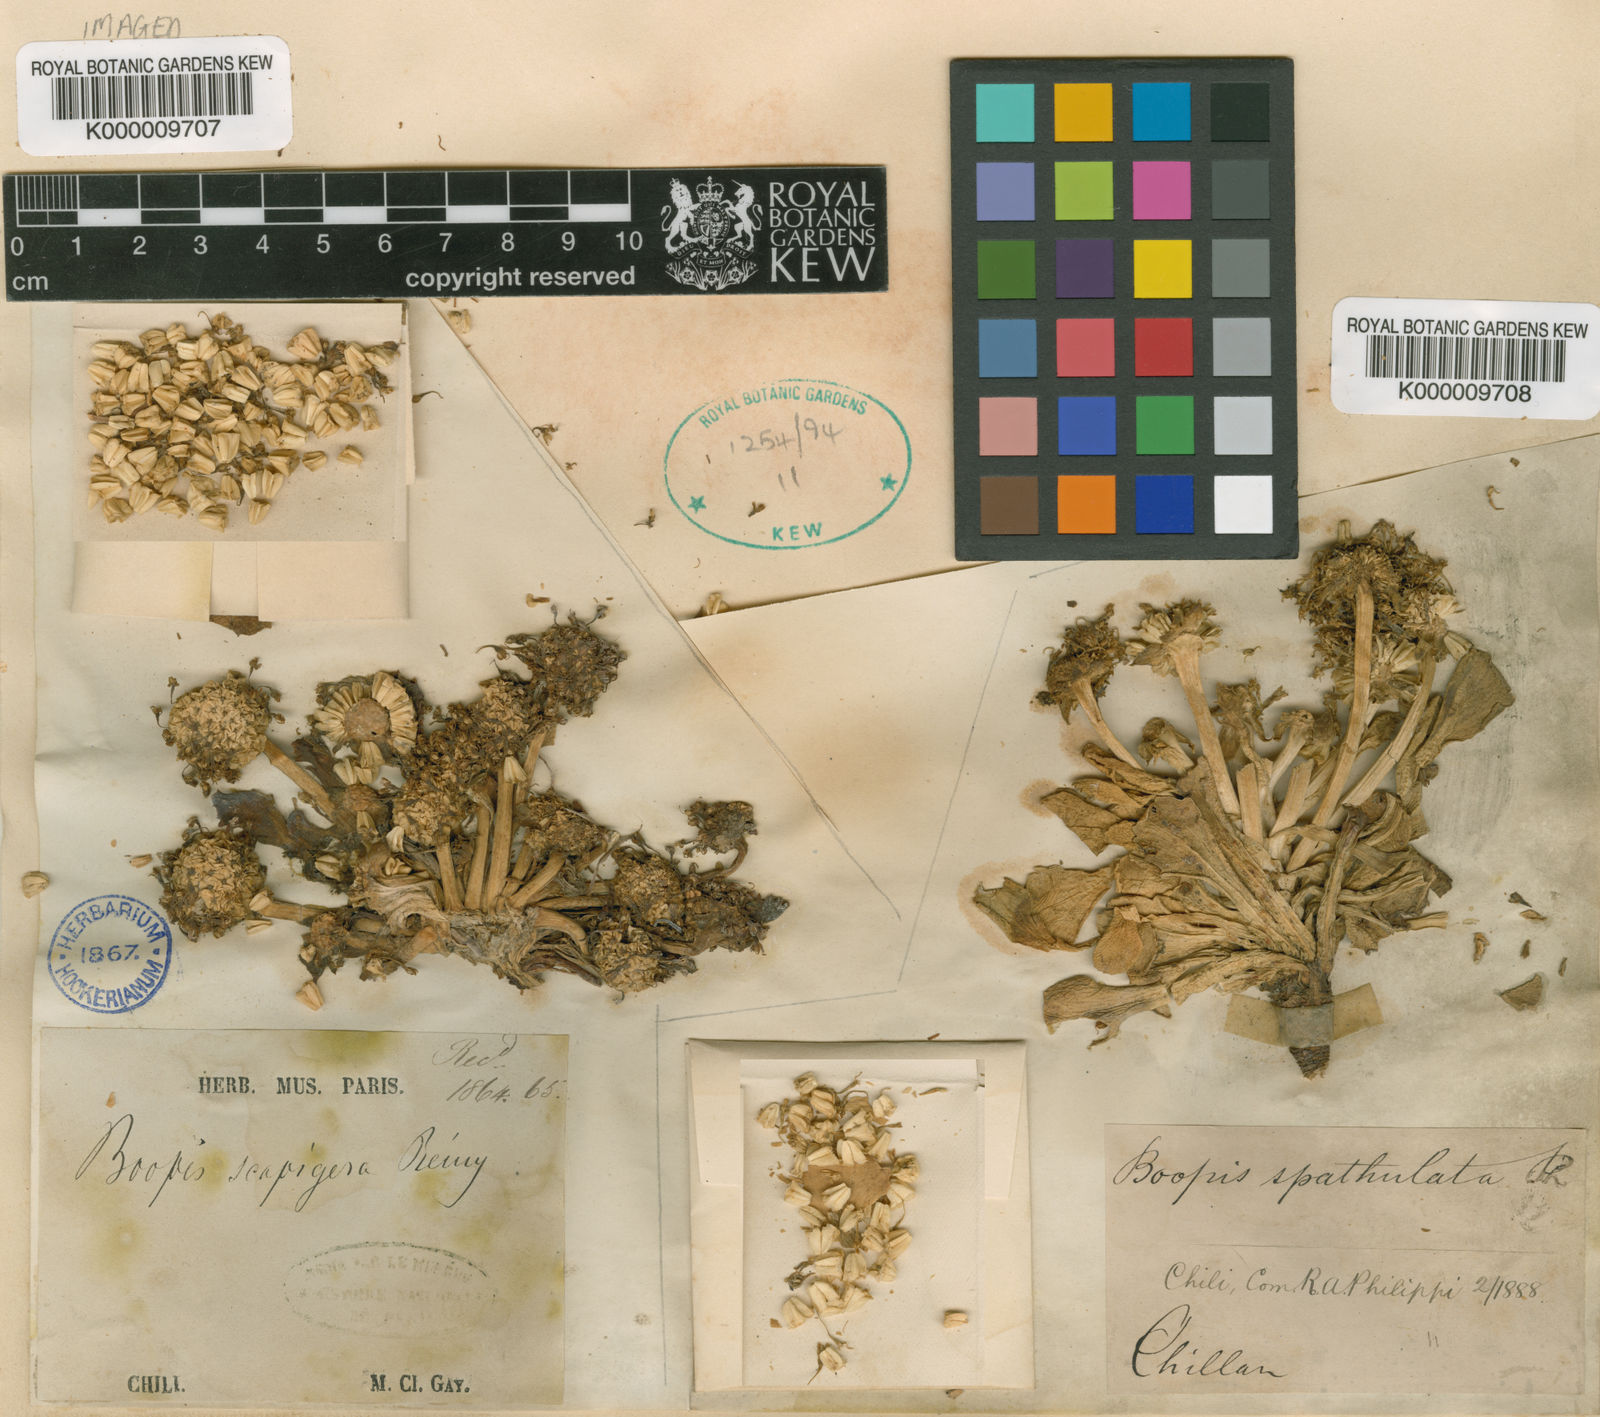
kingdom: Plantae
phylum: Tracheophyta
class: Magnoliopsida
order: Asterales
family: Calyceraceae
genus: Gamocarpha
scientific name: Gamocarpha scapigera
